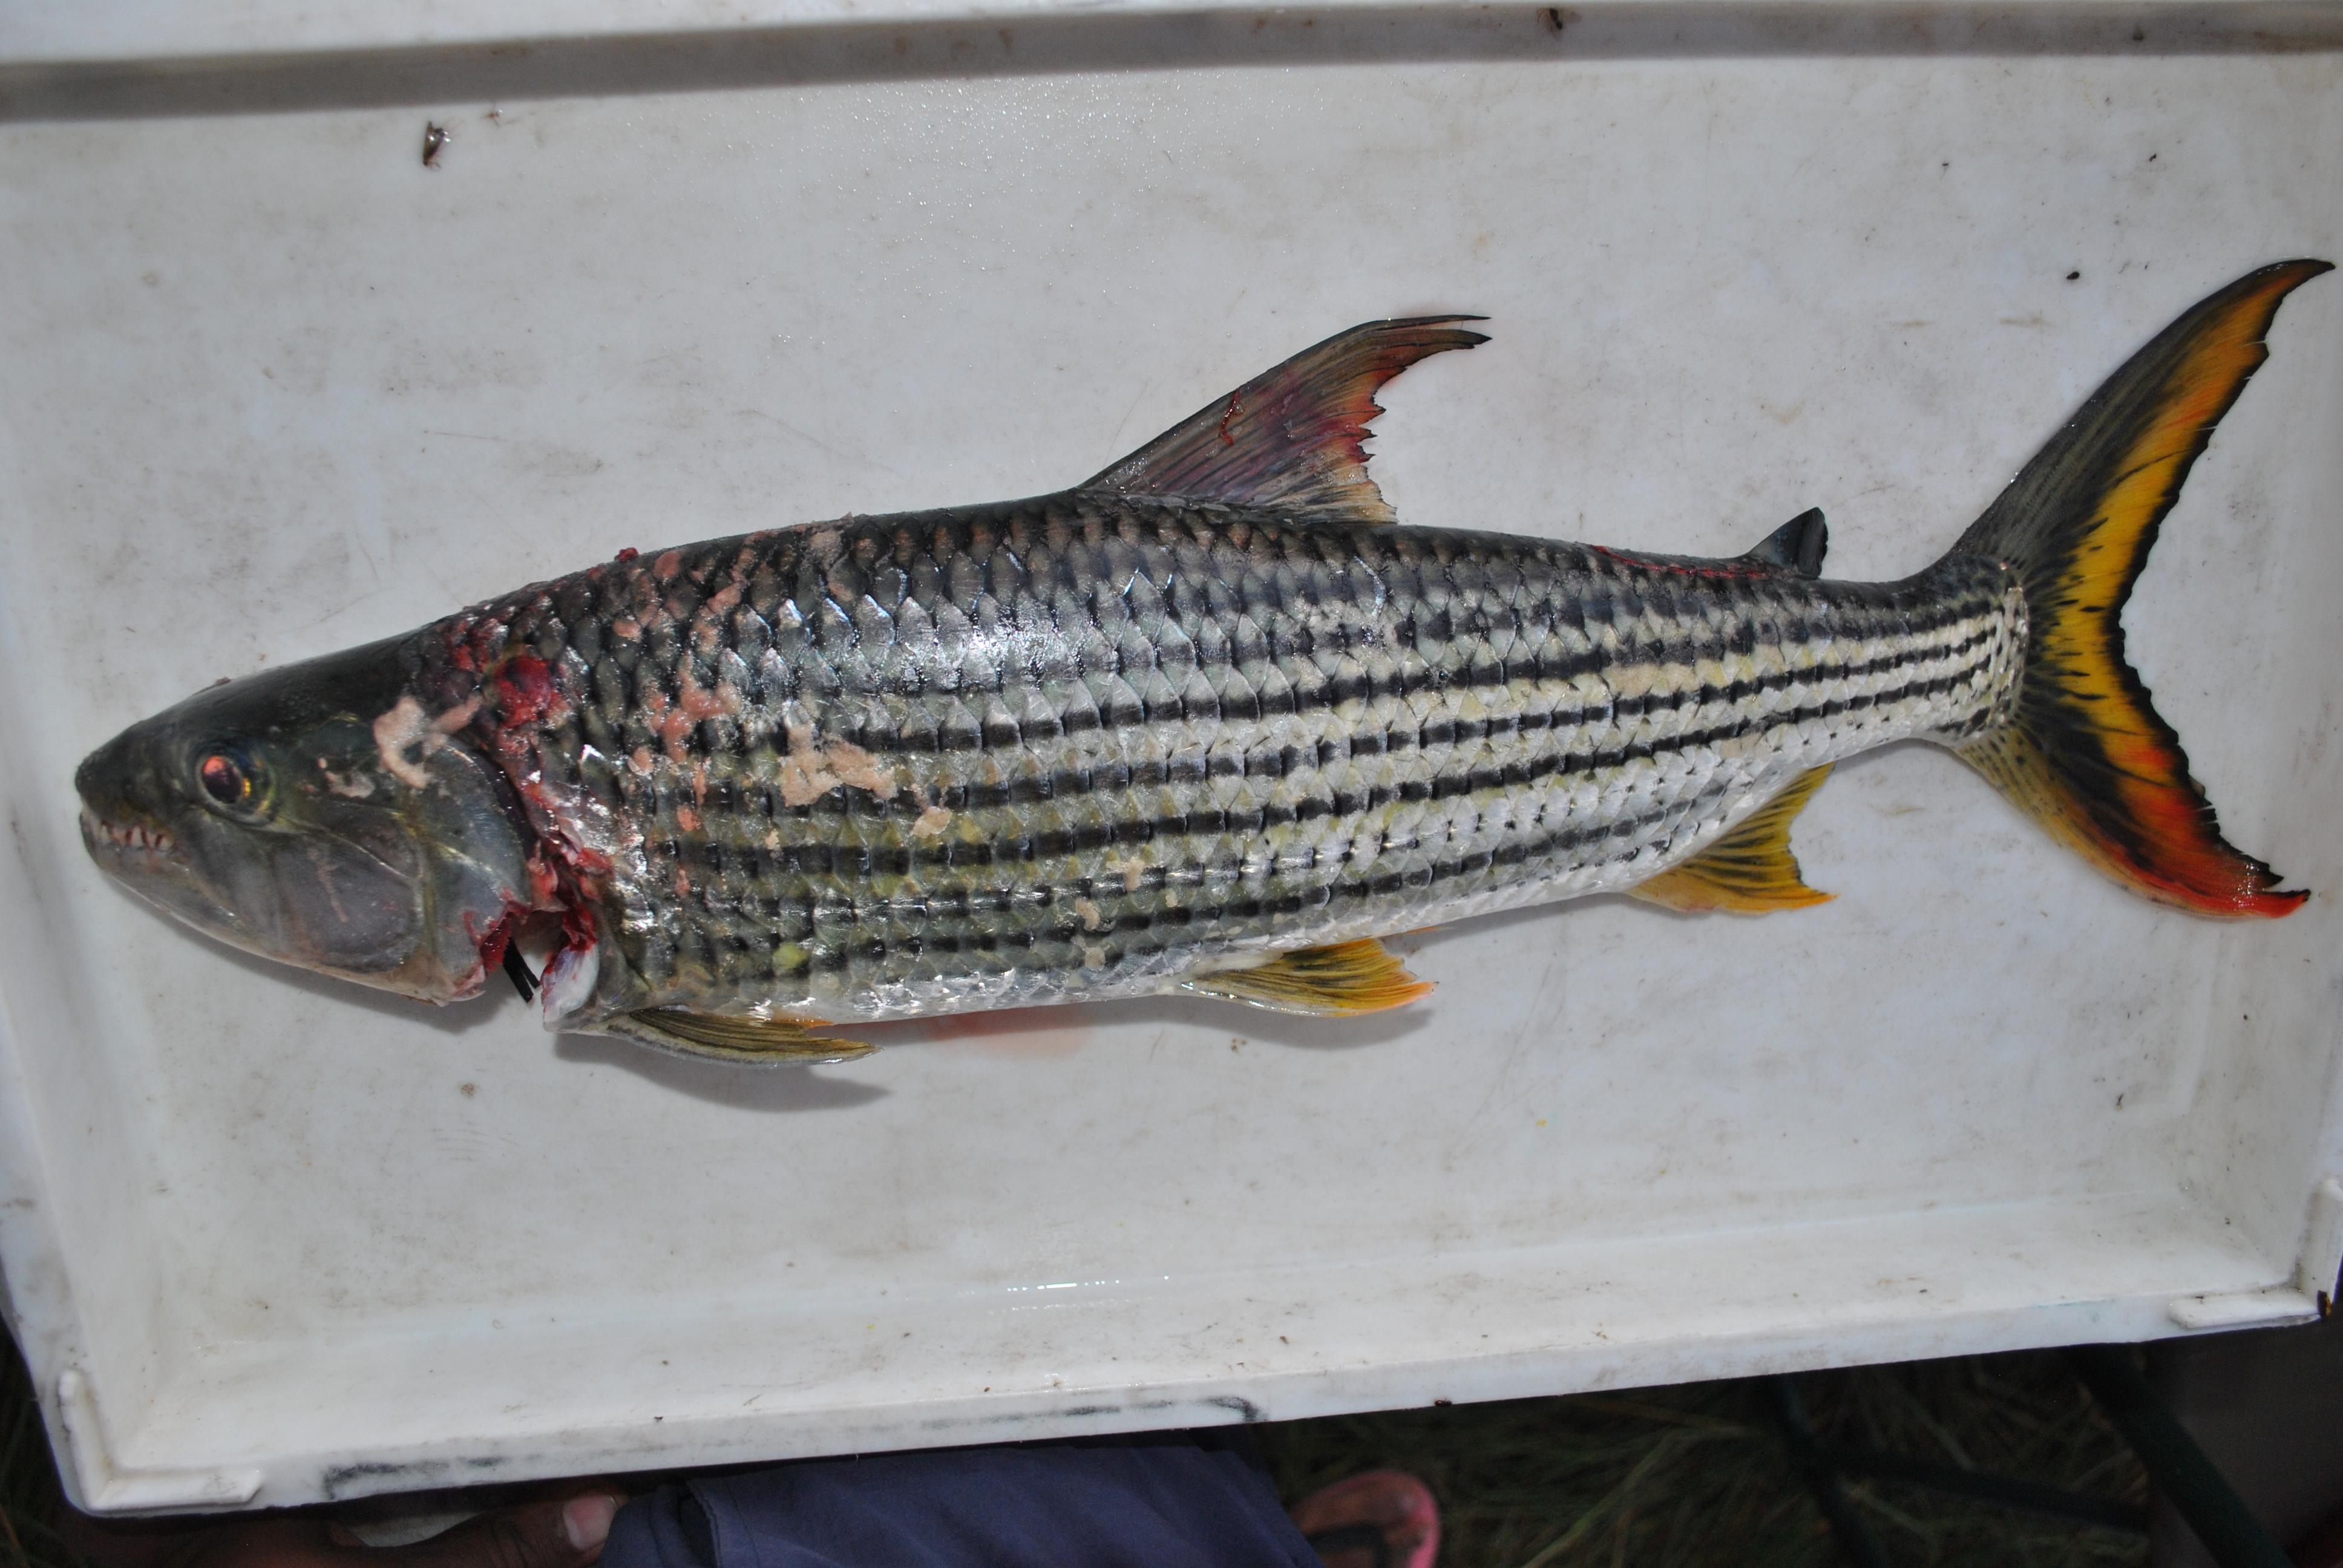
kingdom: Animalia
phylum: Chordata
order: Characiformes
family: Alestidae
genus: Hydrocynus
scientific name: Hydrocynus vittatus
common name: Tigerfish
